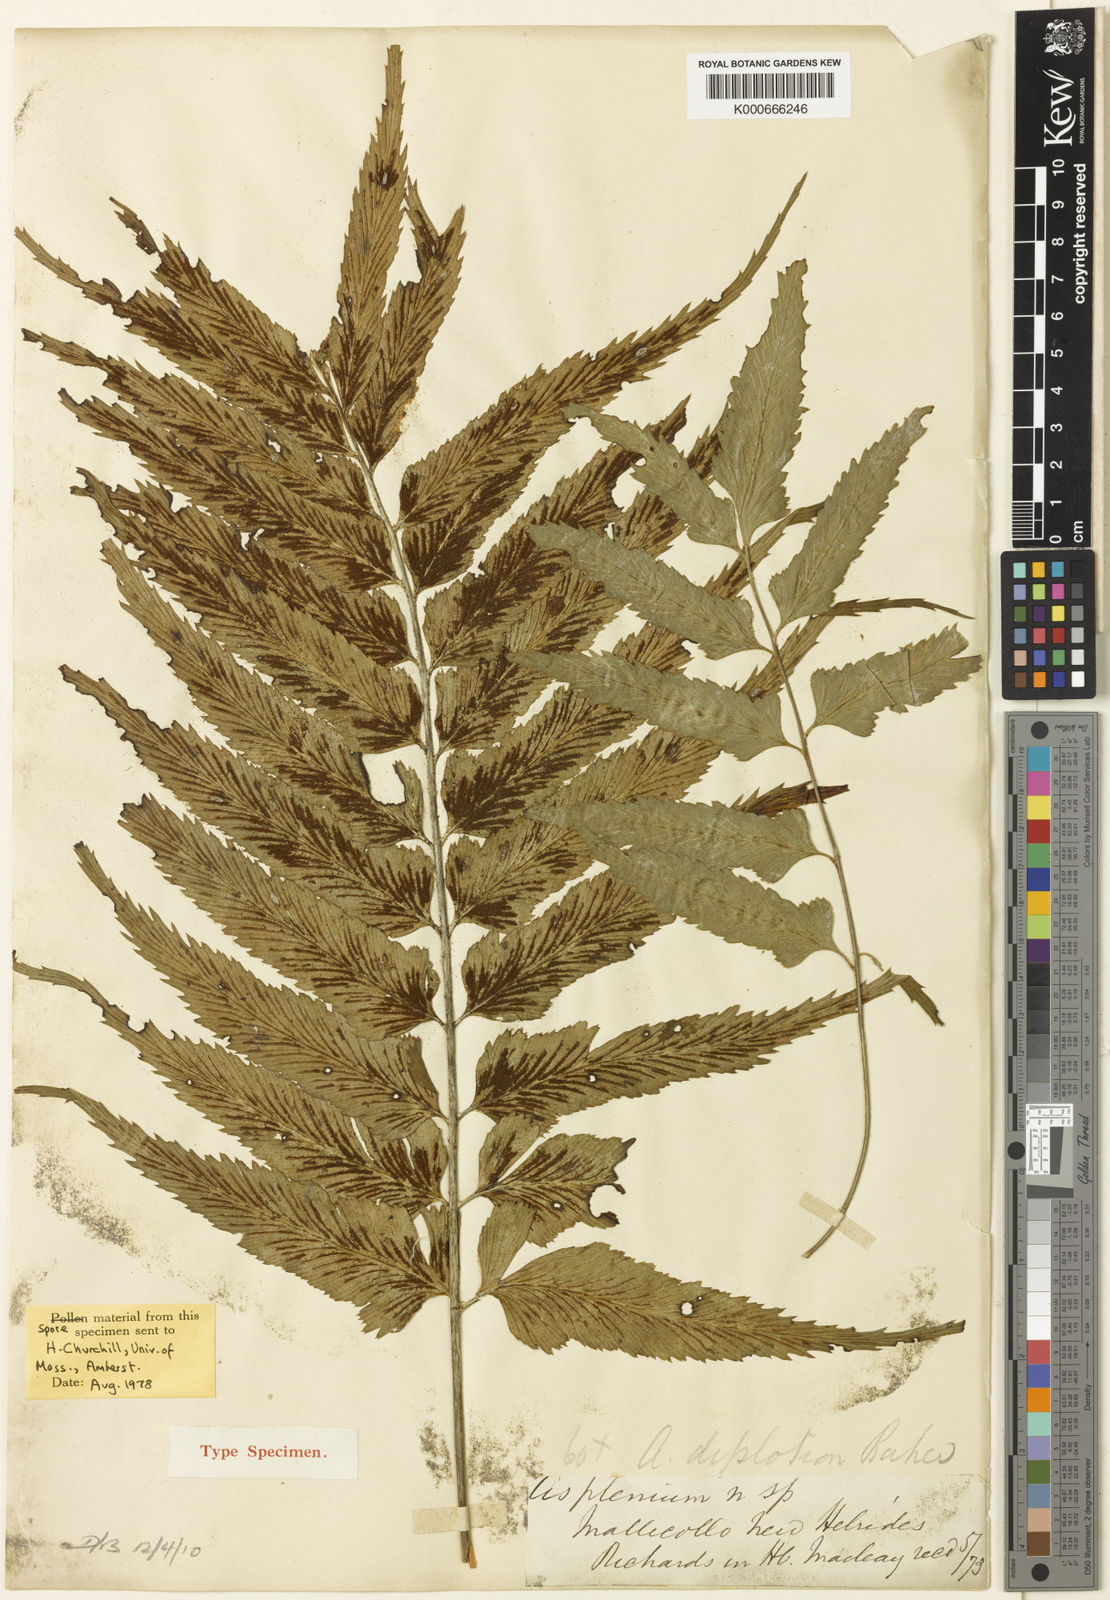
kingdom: Plantae
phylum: Tracheophyta
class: Polypodiopsida
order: Polypodiales
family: Aspleniaceae
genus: Asplenium
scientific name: Asplenium diplotion
